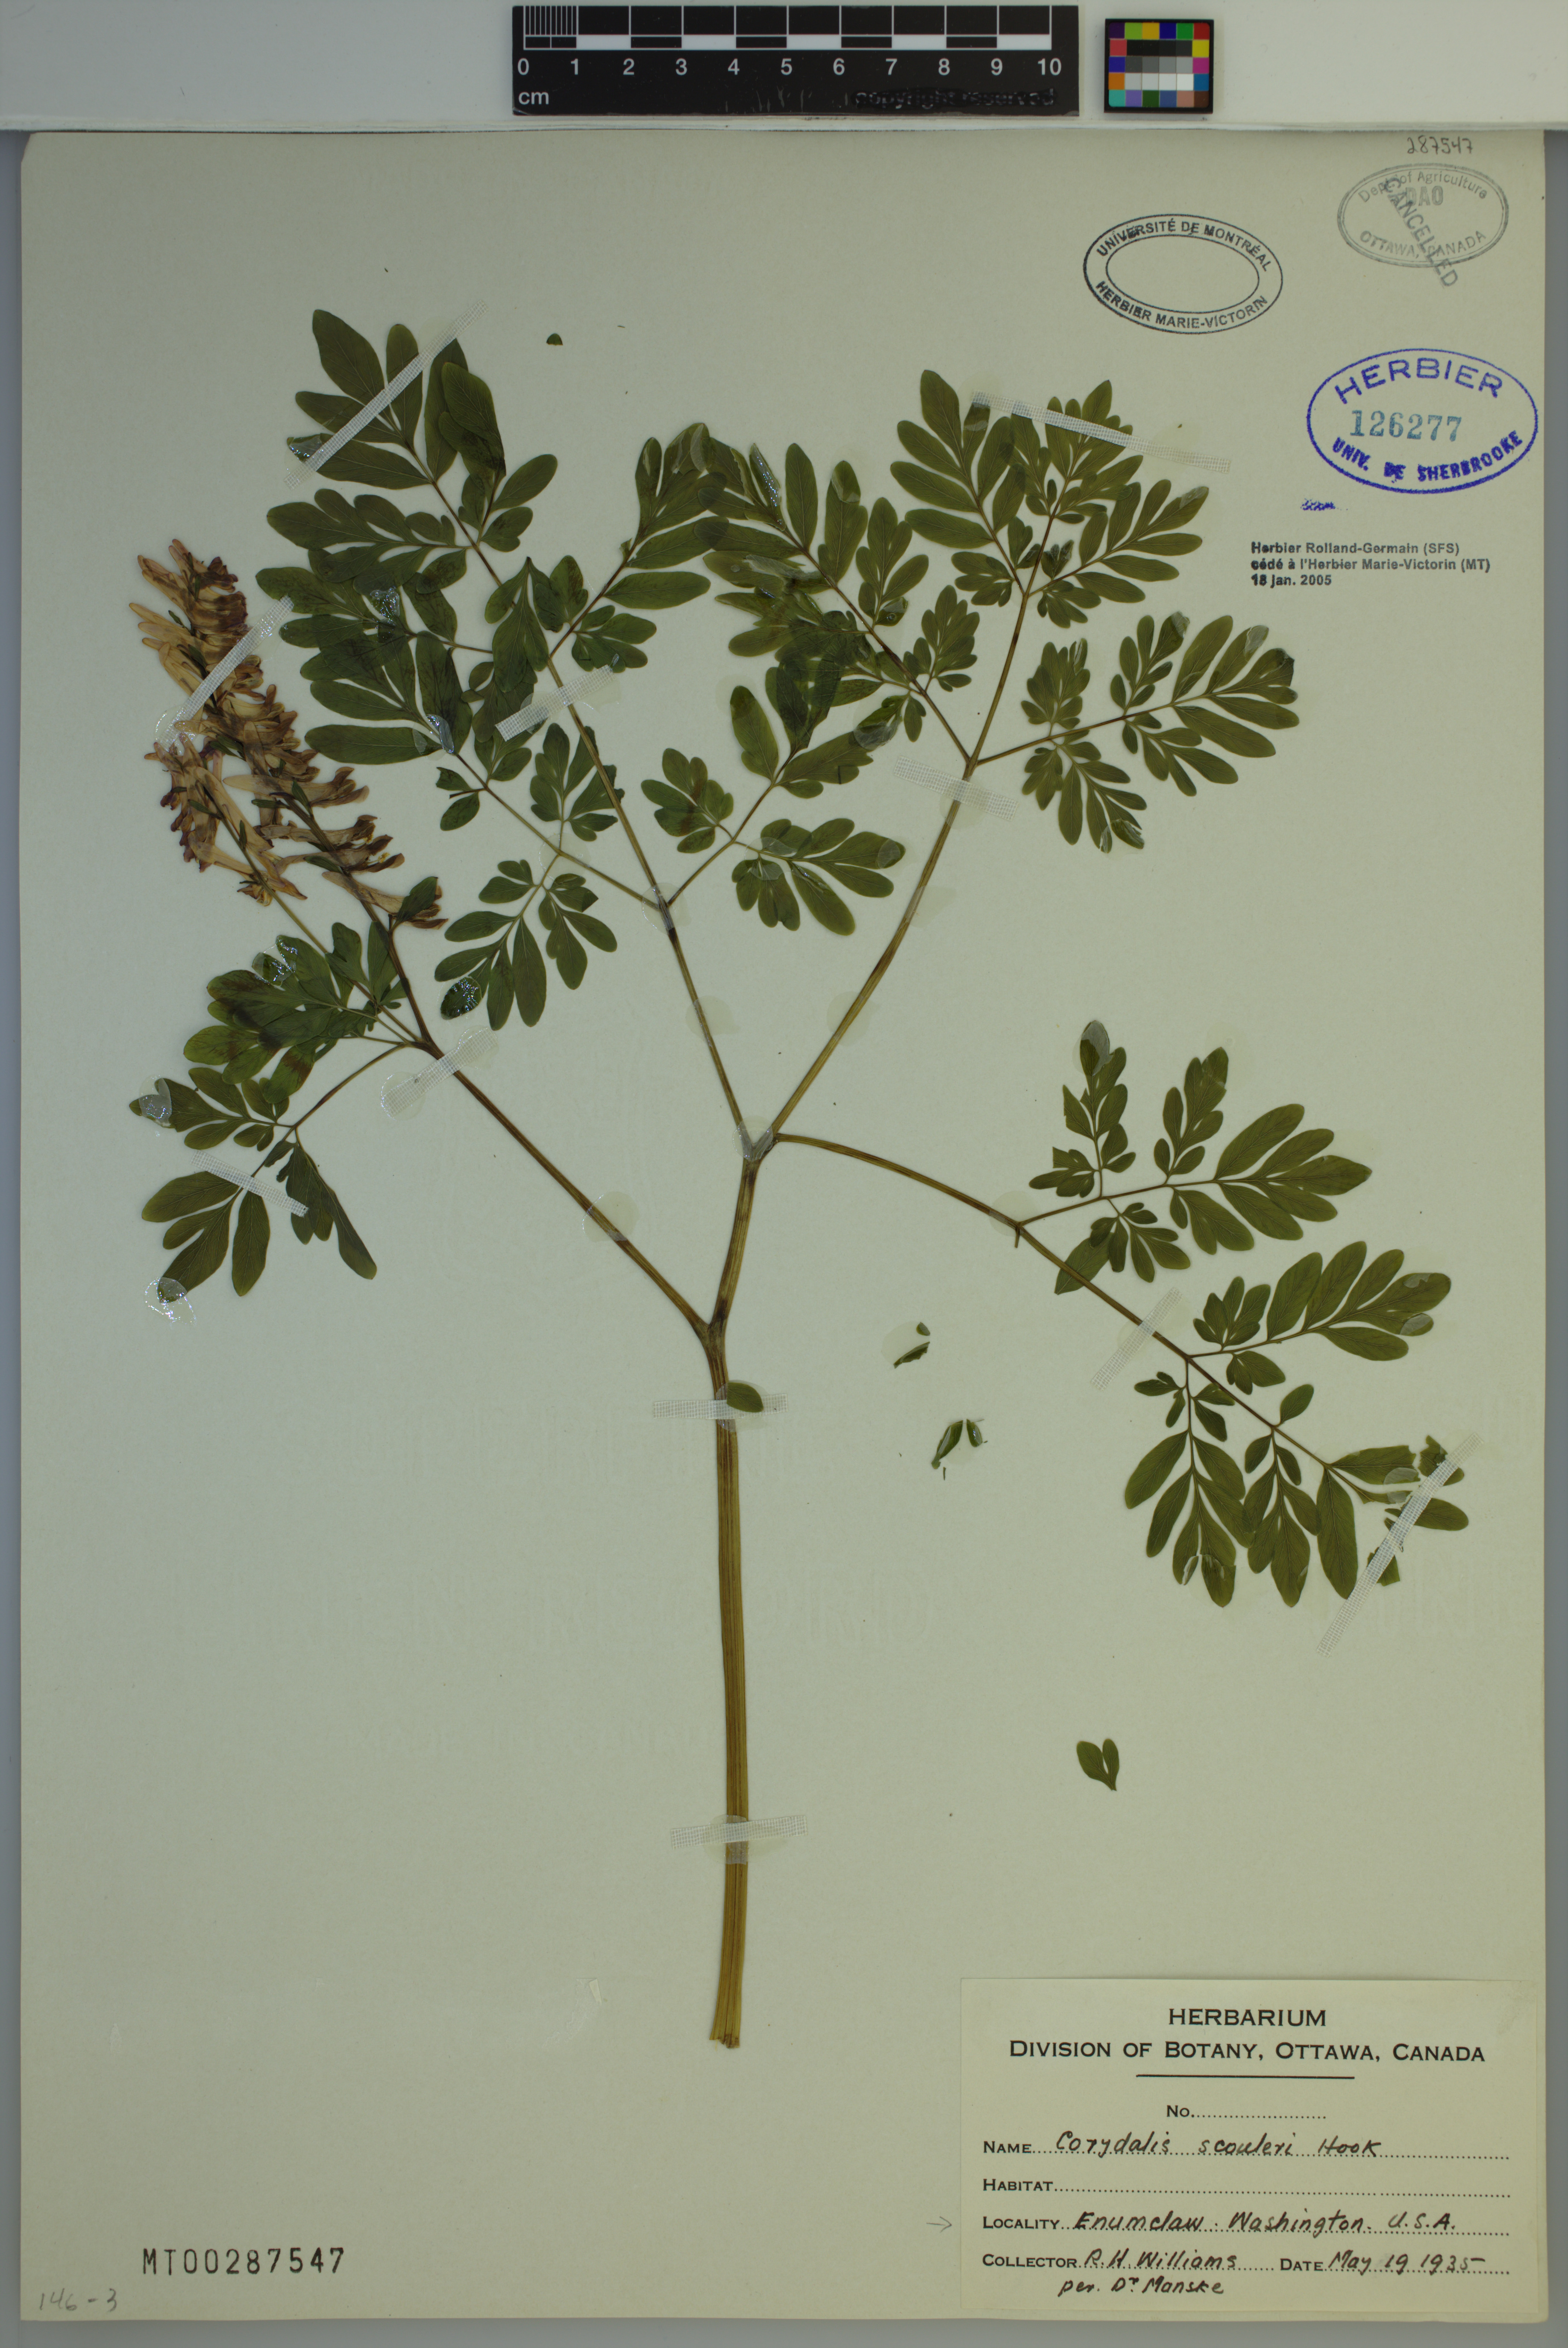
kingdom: Plantae
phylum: Tracheophyta
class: Magnoliopsida
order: Ranunculales
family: Papaveraceae
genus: Corydalis
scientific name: Corydalis scouleri
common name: Scouler's corydalis
